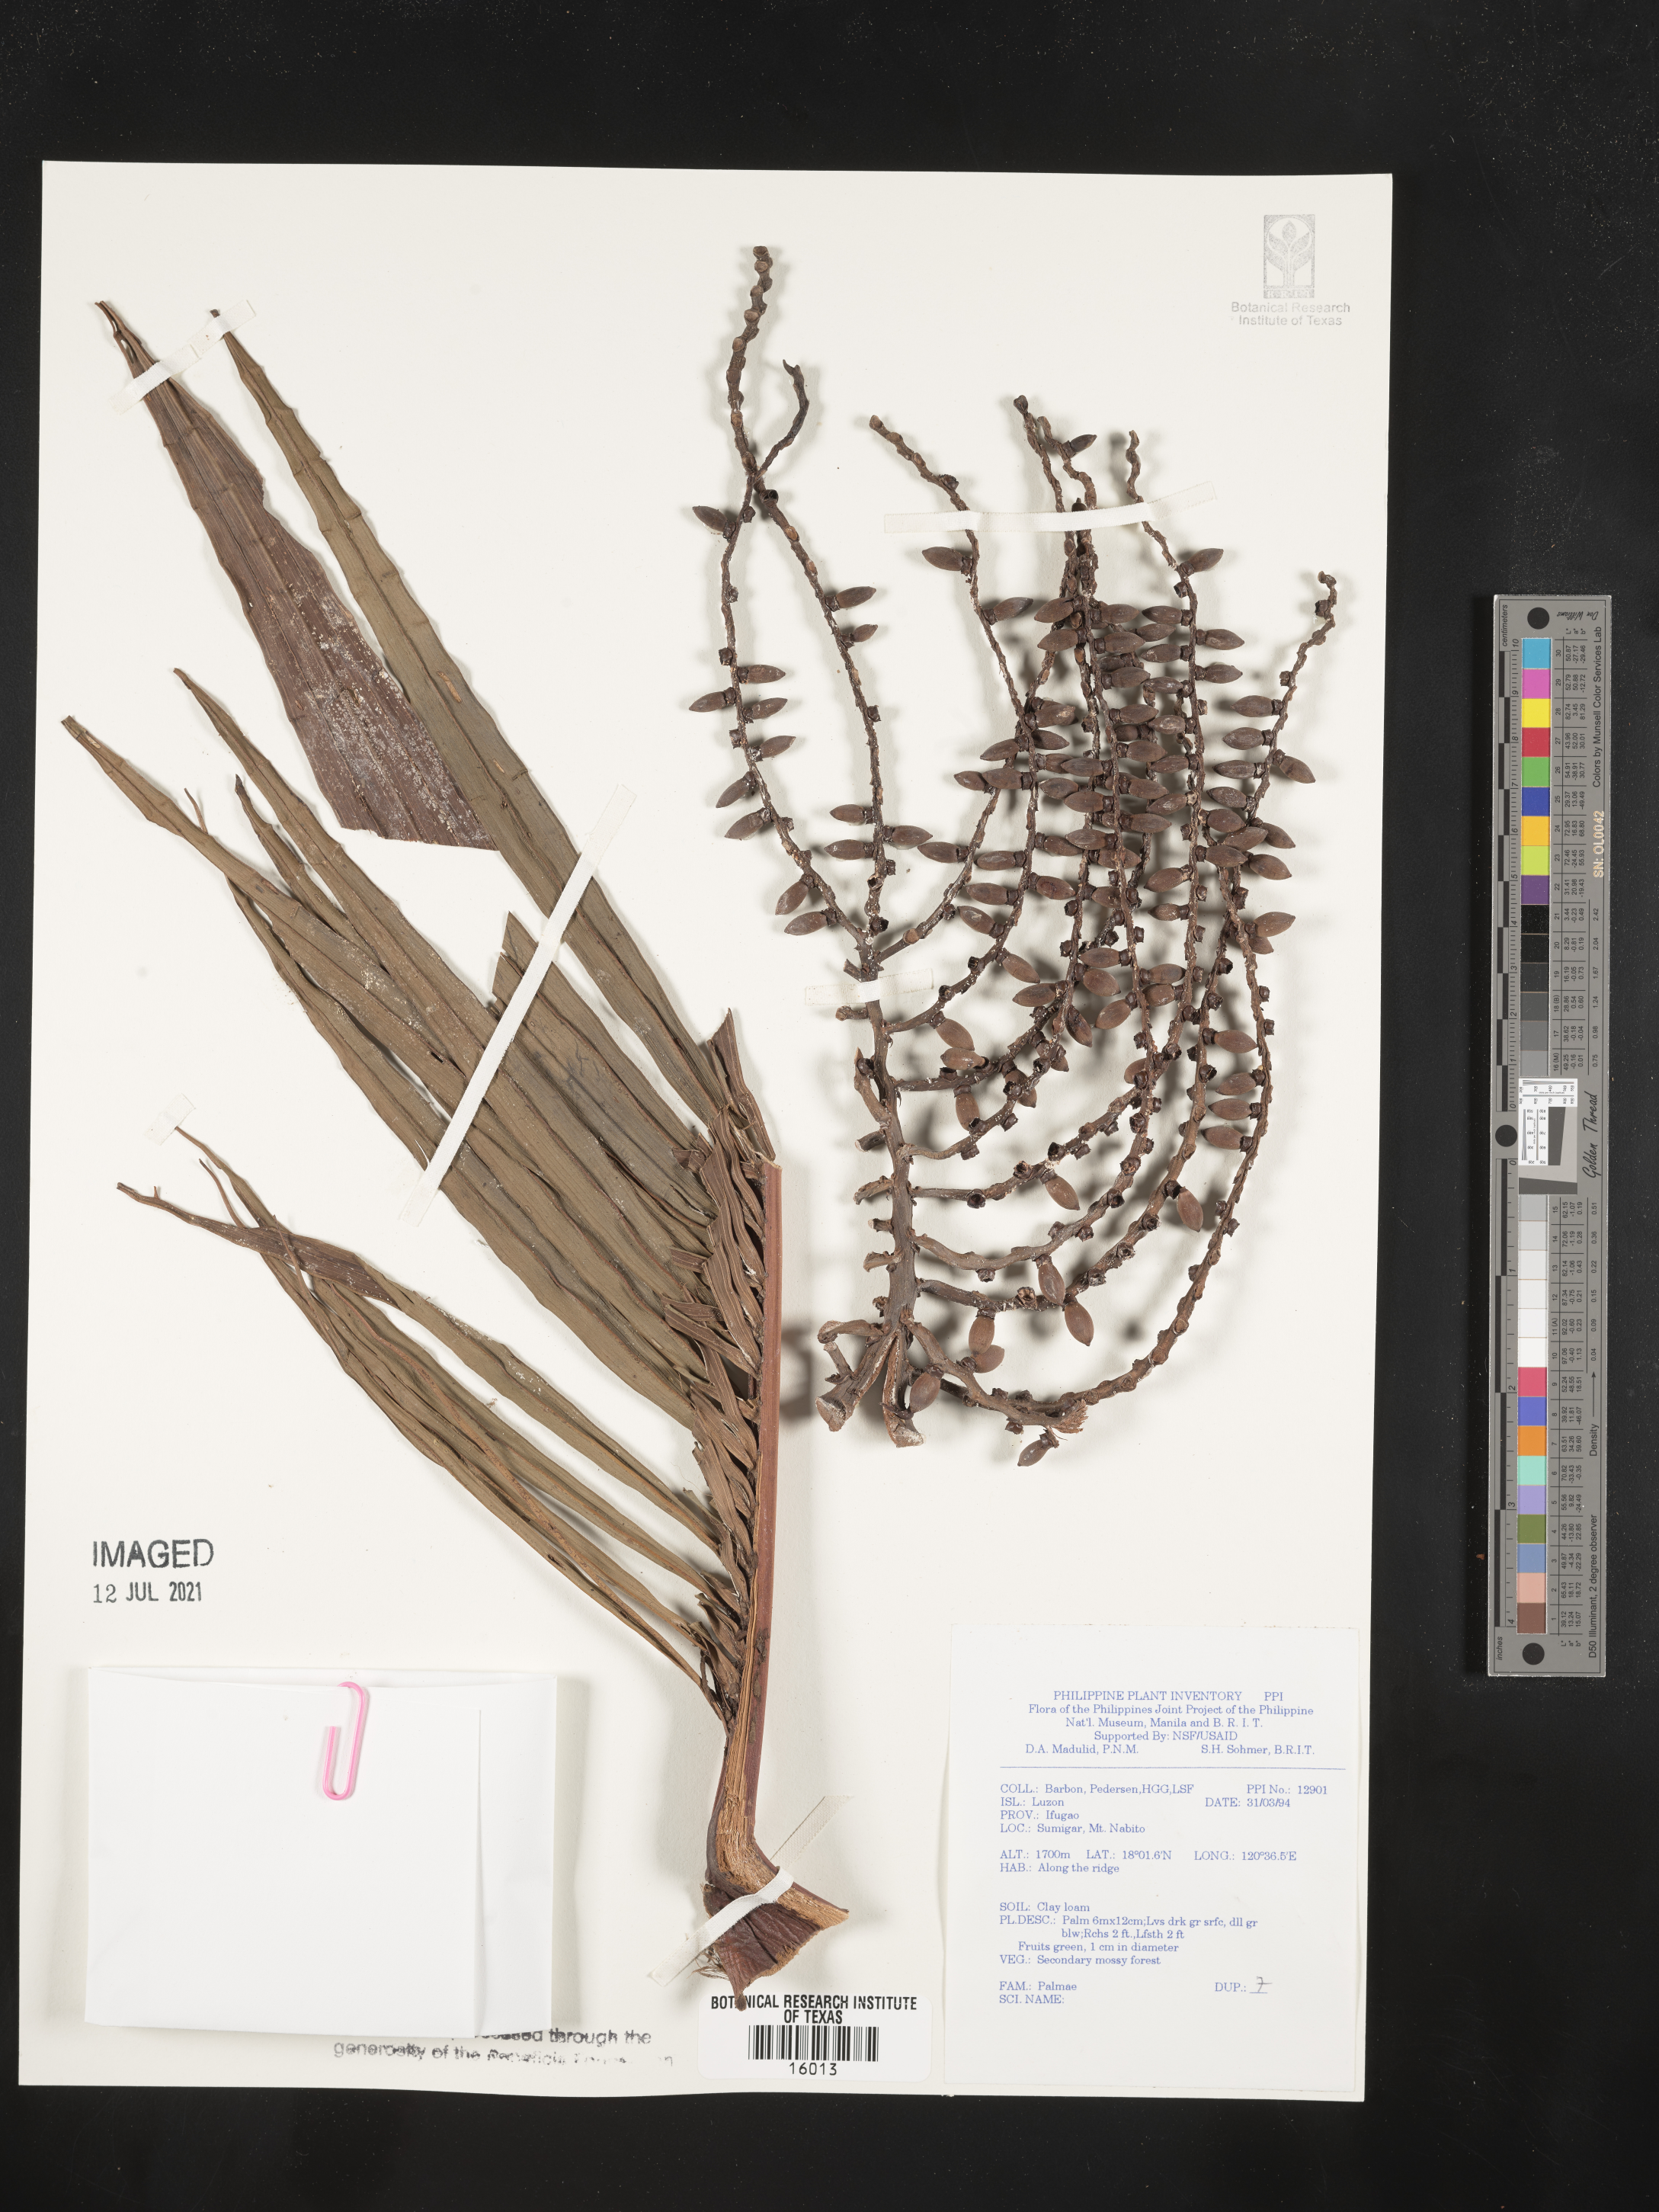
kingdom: Plantae
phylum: Tracheophyta
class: Liliopsida
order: Arecales
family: Arecaceae
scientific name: Arecaceae
